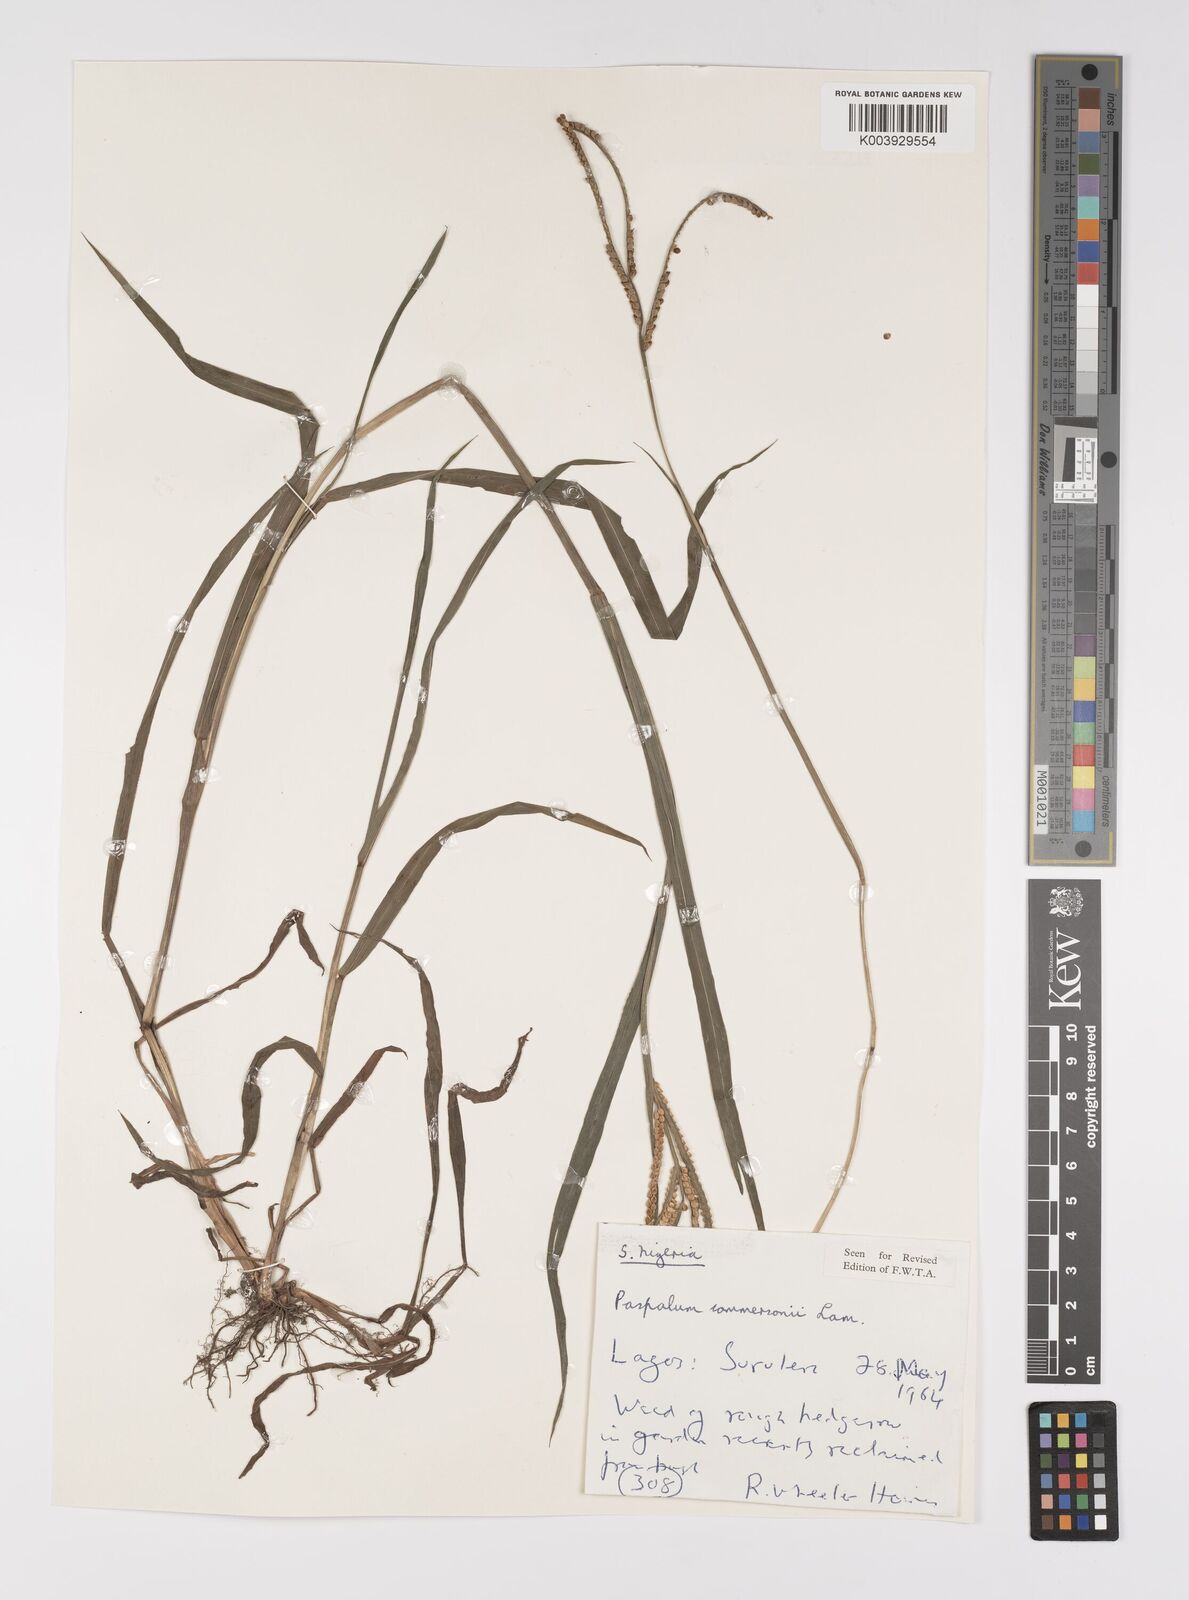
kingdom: Plantae
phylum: Tracheophyta
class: Liliopsida
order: Poales
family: Poaceae
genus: Paspalum
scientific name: Paspalum scrobiculatum
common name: Kodo millet
